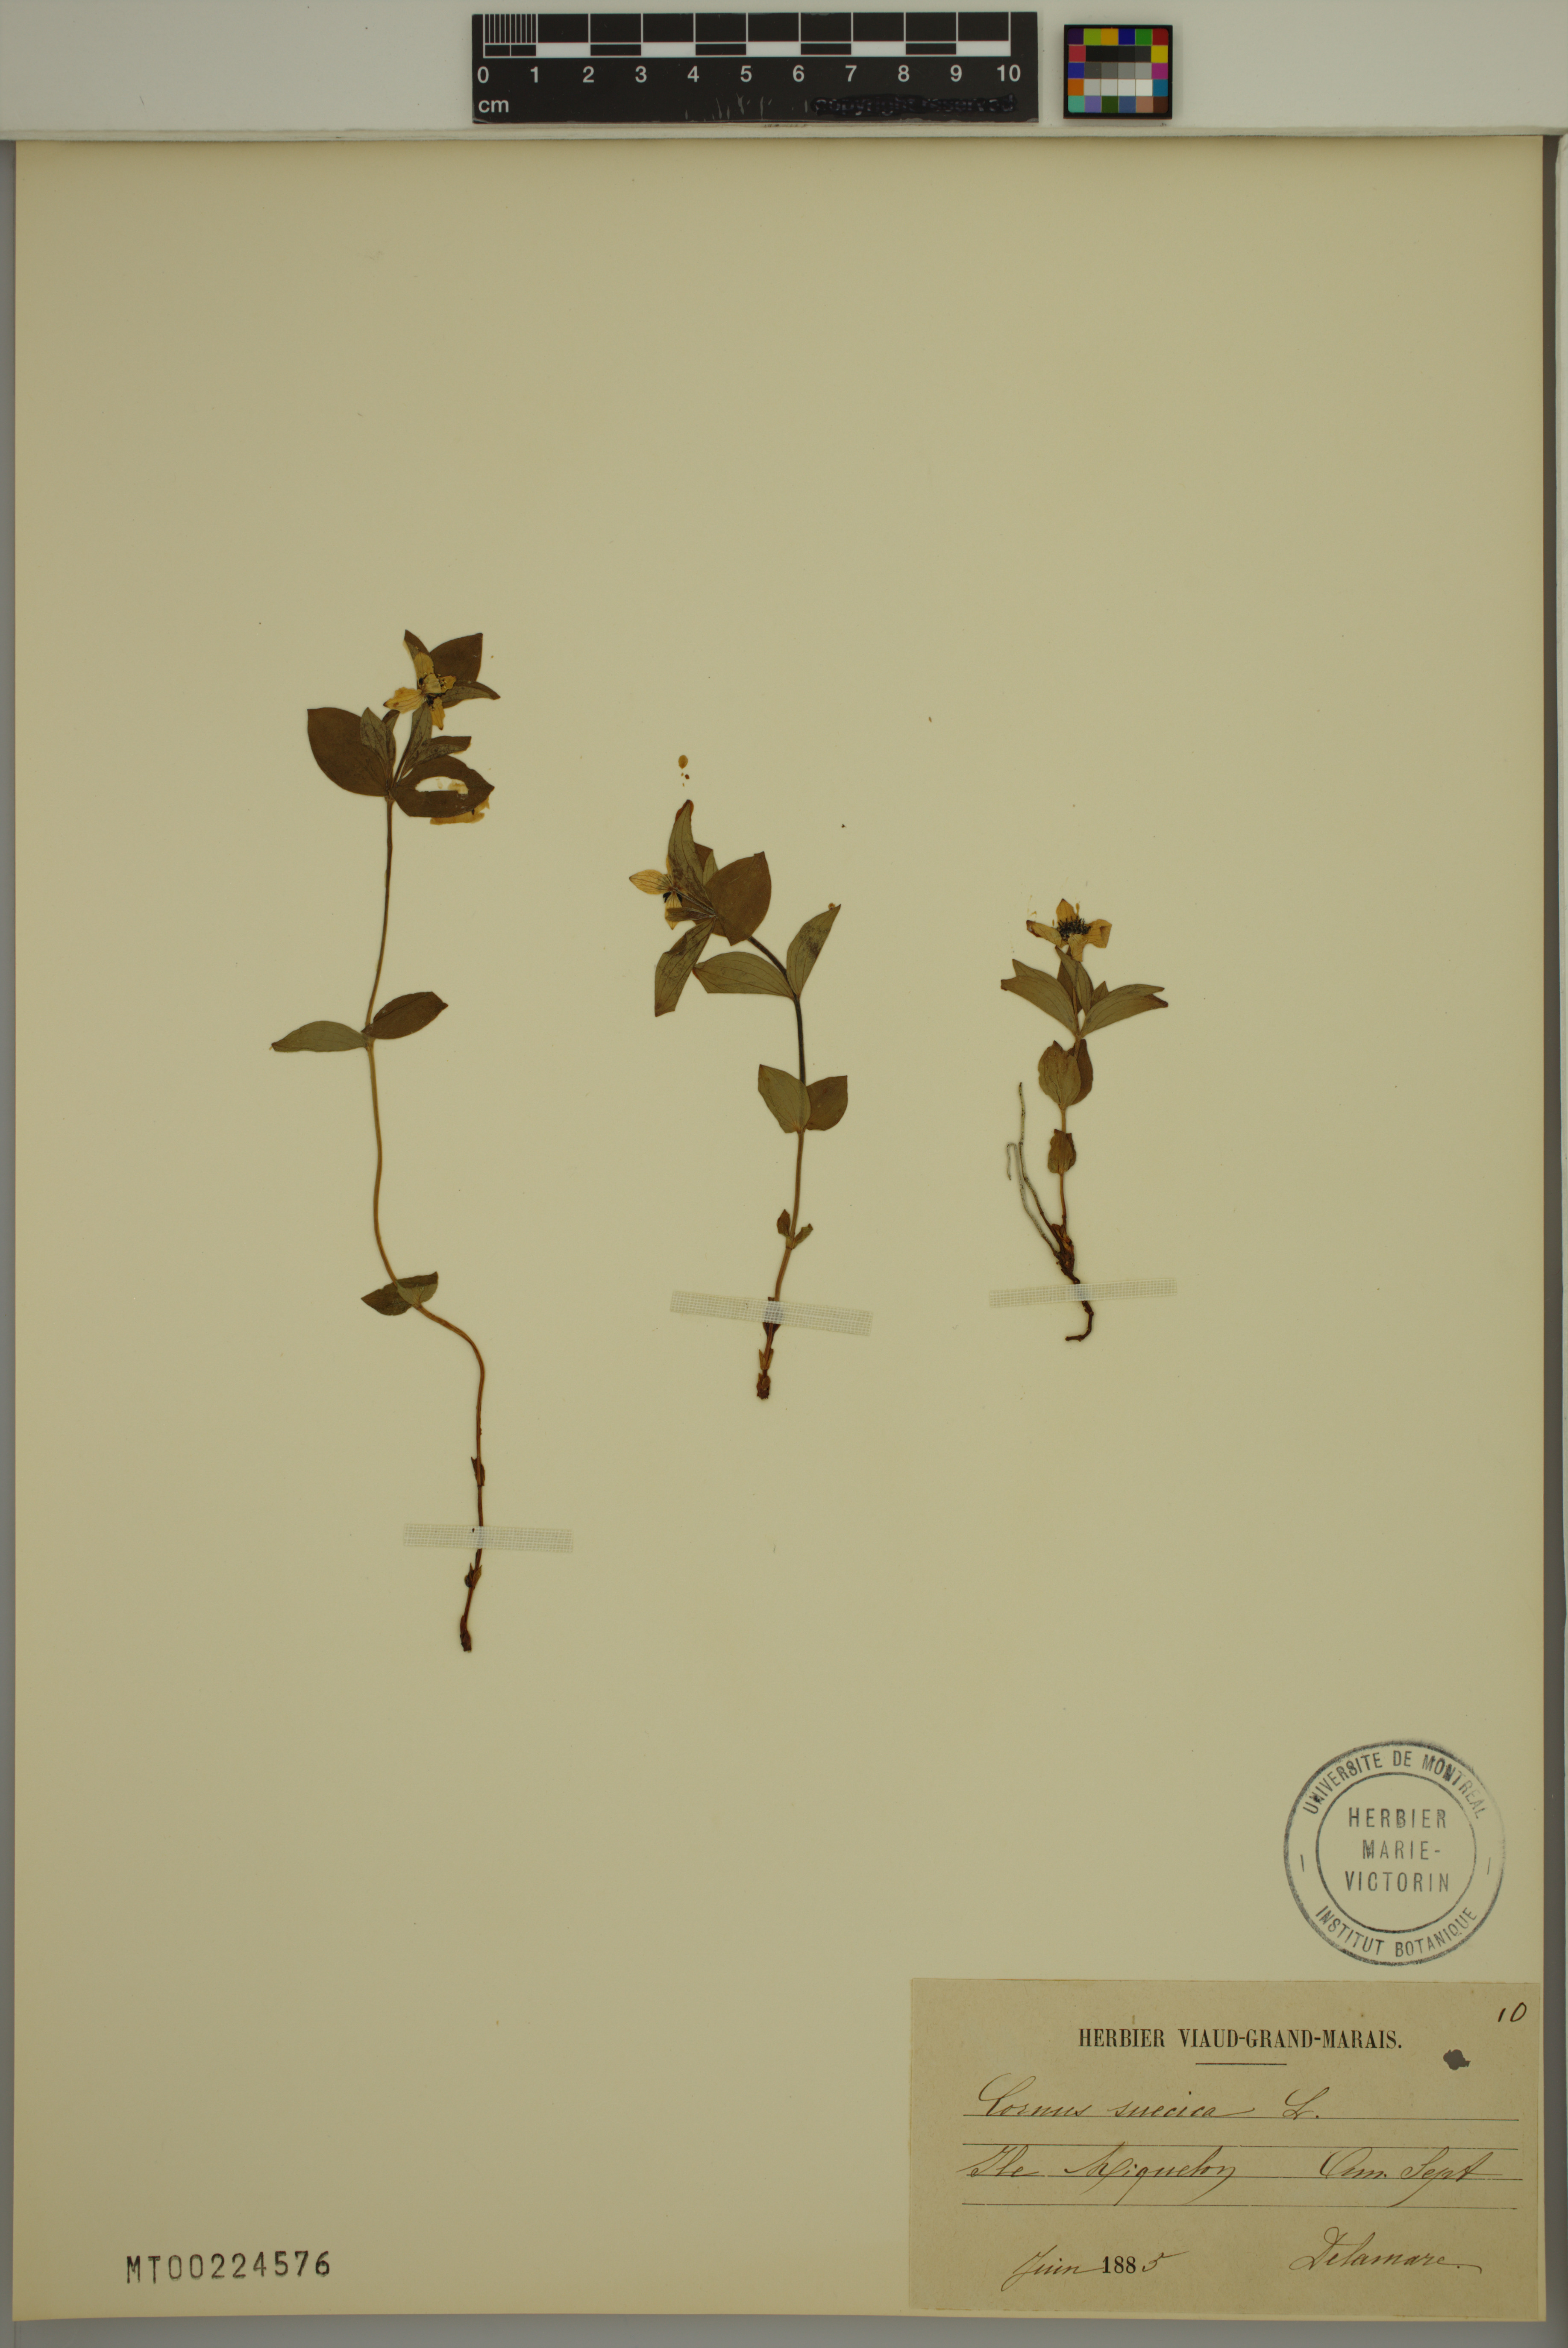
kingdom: Plantae
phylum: Tracheophyta
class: Magnoliopsida
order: Cornales
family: Cornaceae
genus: Cornus
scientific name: Cornus suecica
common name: Dwarf cornel
